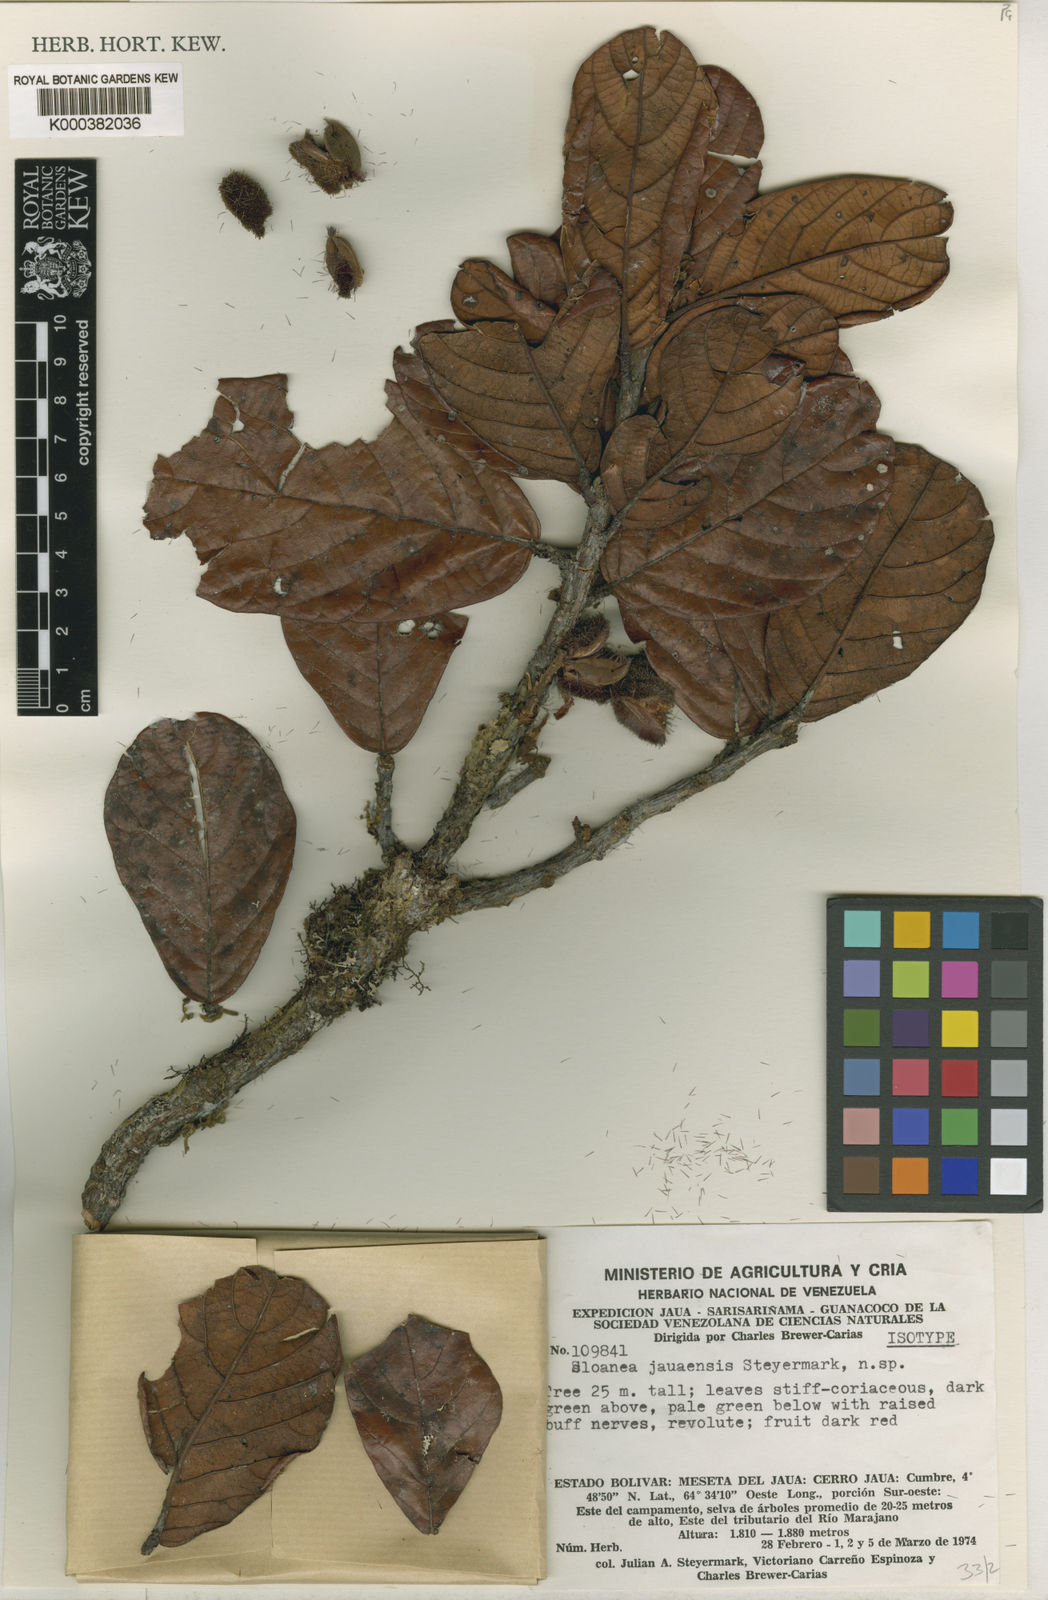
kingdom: Plantae
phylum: Tracheophyta
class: Magnoliopsida
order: Oxalidales
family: Elaeocarpaceae
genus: Sloanea
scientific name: Sloanea steyermarkii
